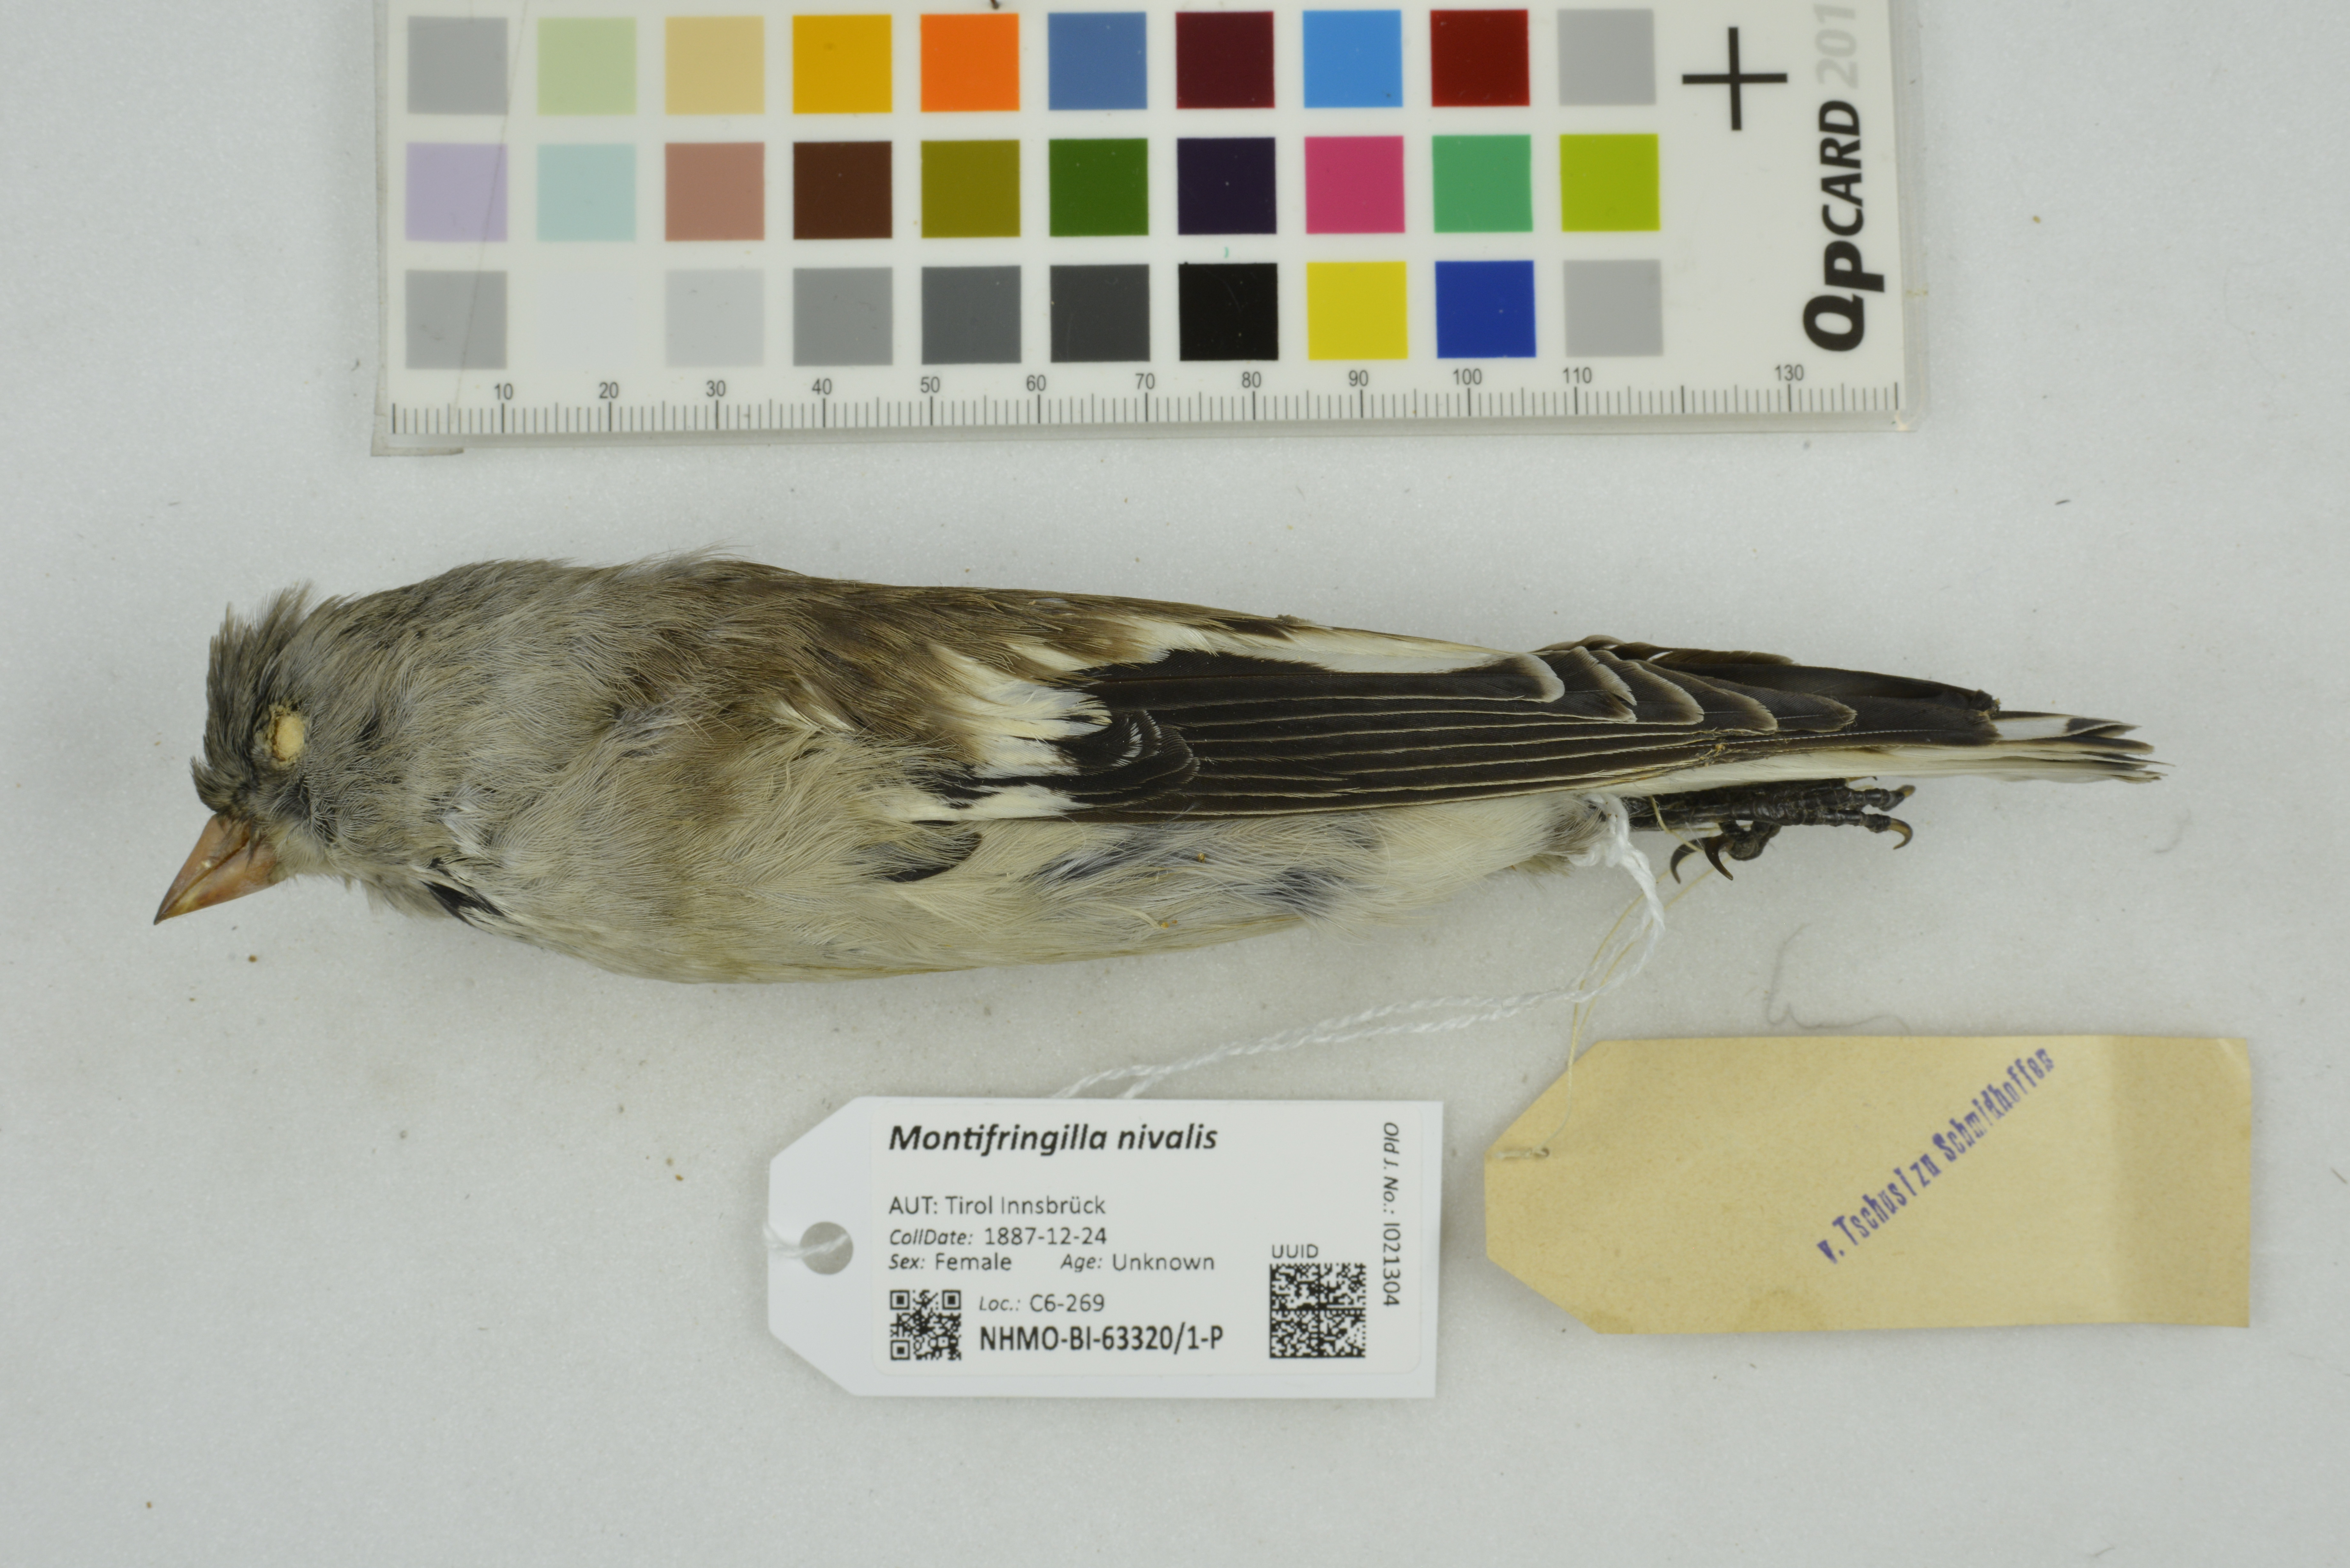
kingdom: Animalia
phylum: Chordata
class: Aves
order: Passeriformes
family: Passeridae
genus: Montifringilla
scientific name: Montifringilla nivalis
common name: White-winged snowfinch
